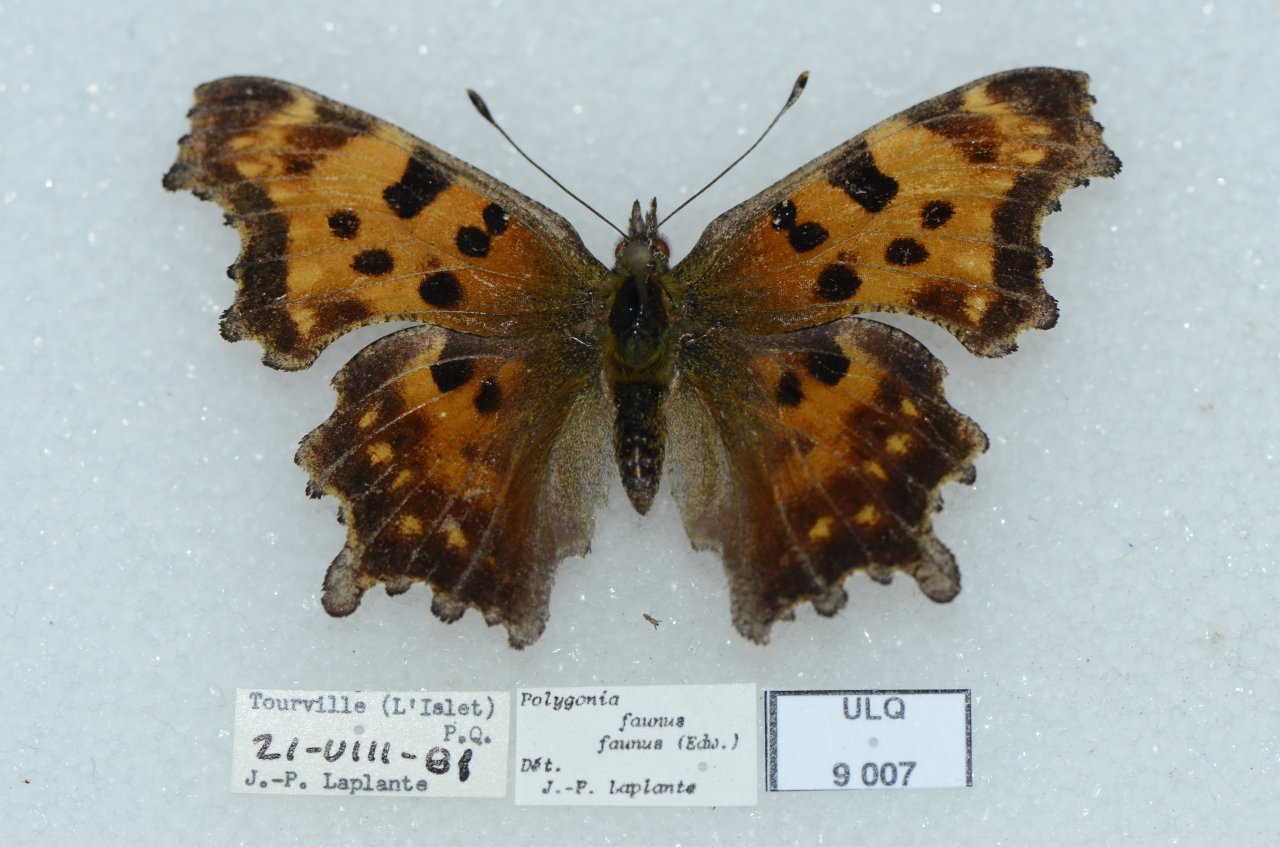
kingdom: Animalia
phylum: Arthropoda
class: Insecta
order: Lepidoptera
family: Nymphalidae
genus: Polygonia
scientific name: Polygonia faunus
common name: Green Comma
